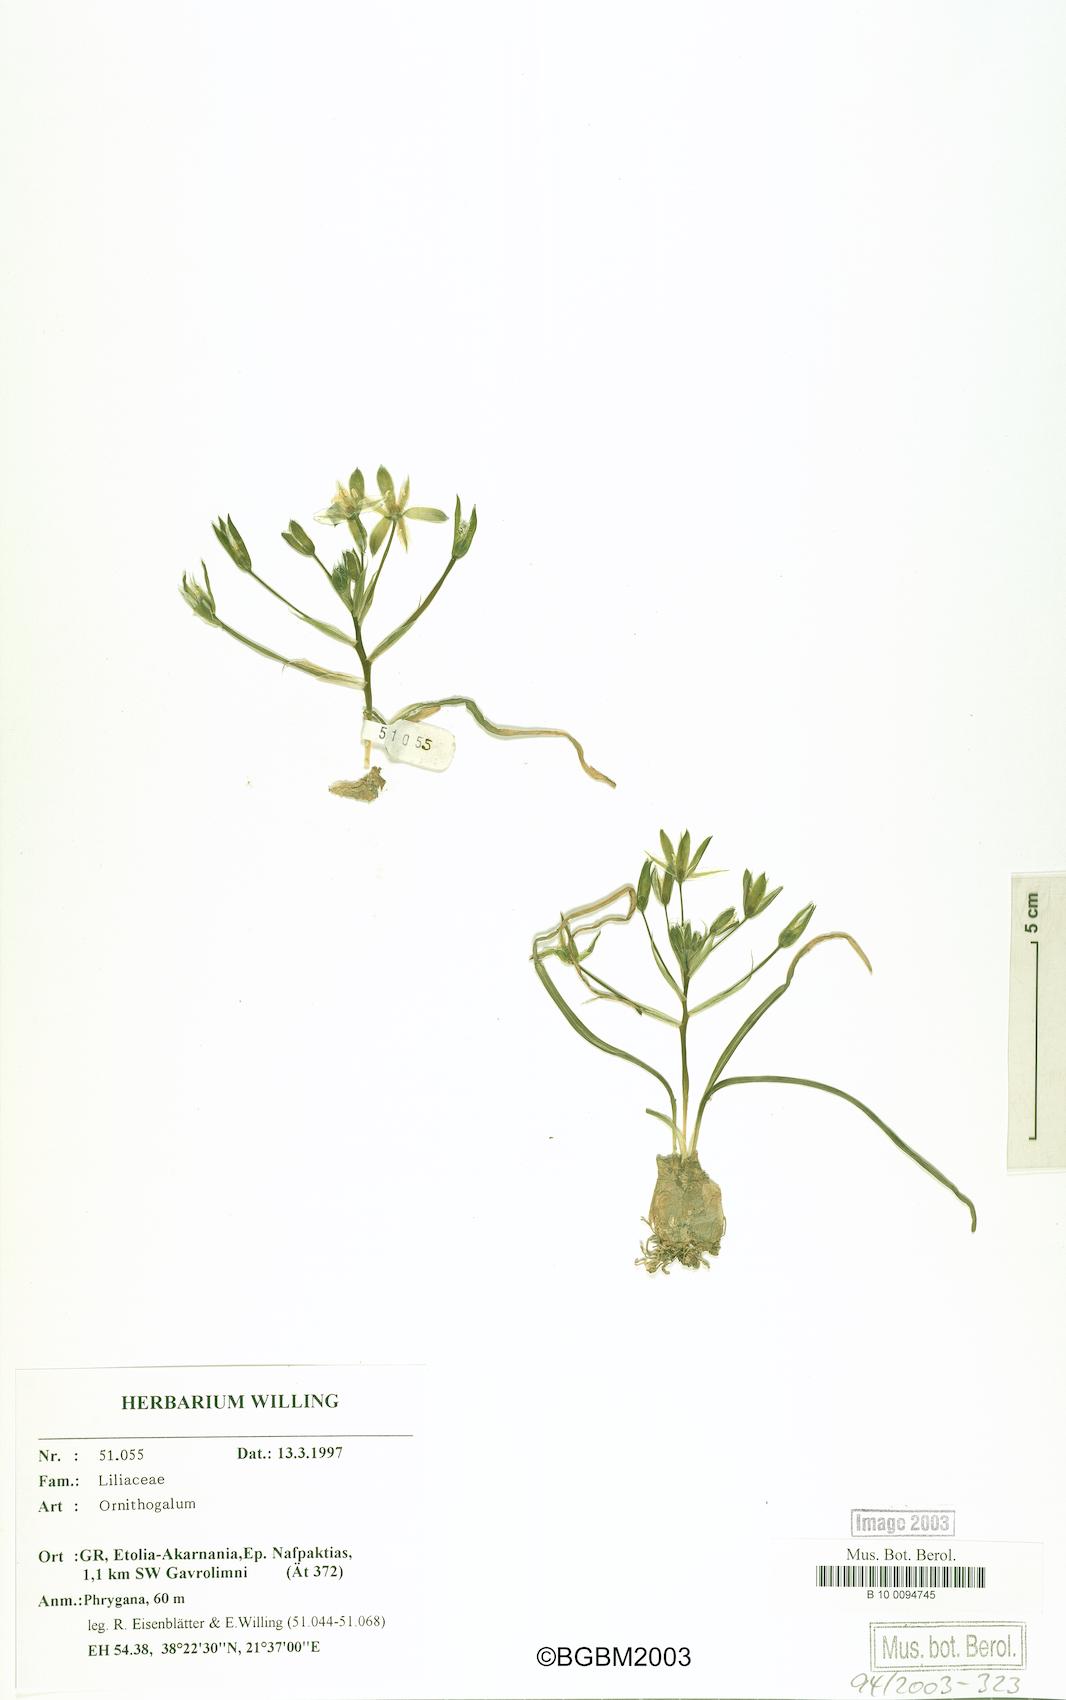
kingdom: Plantae
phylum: Tracheophyta
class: Liliopsida
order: Asparagales
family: Asparagaceae
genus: Ornithogalum
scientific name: Ornithogalum
